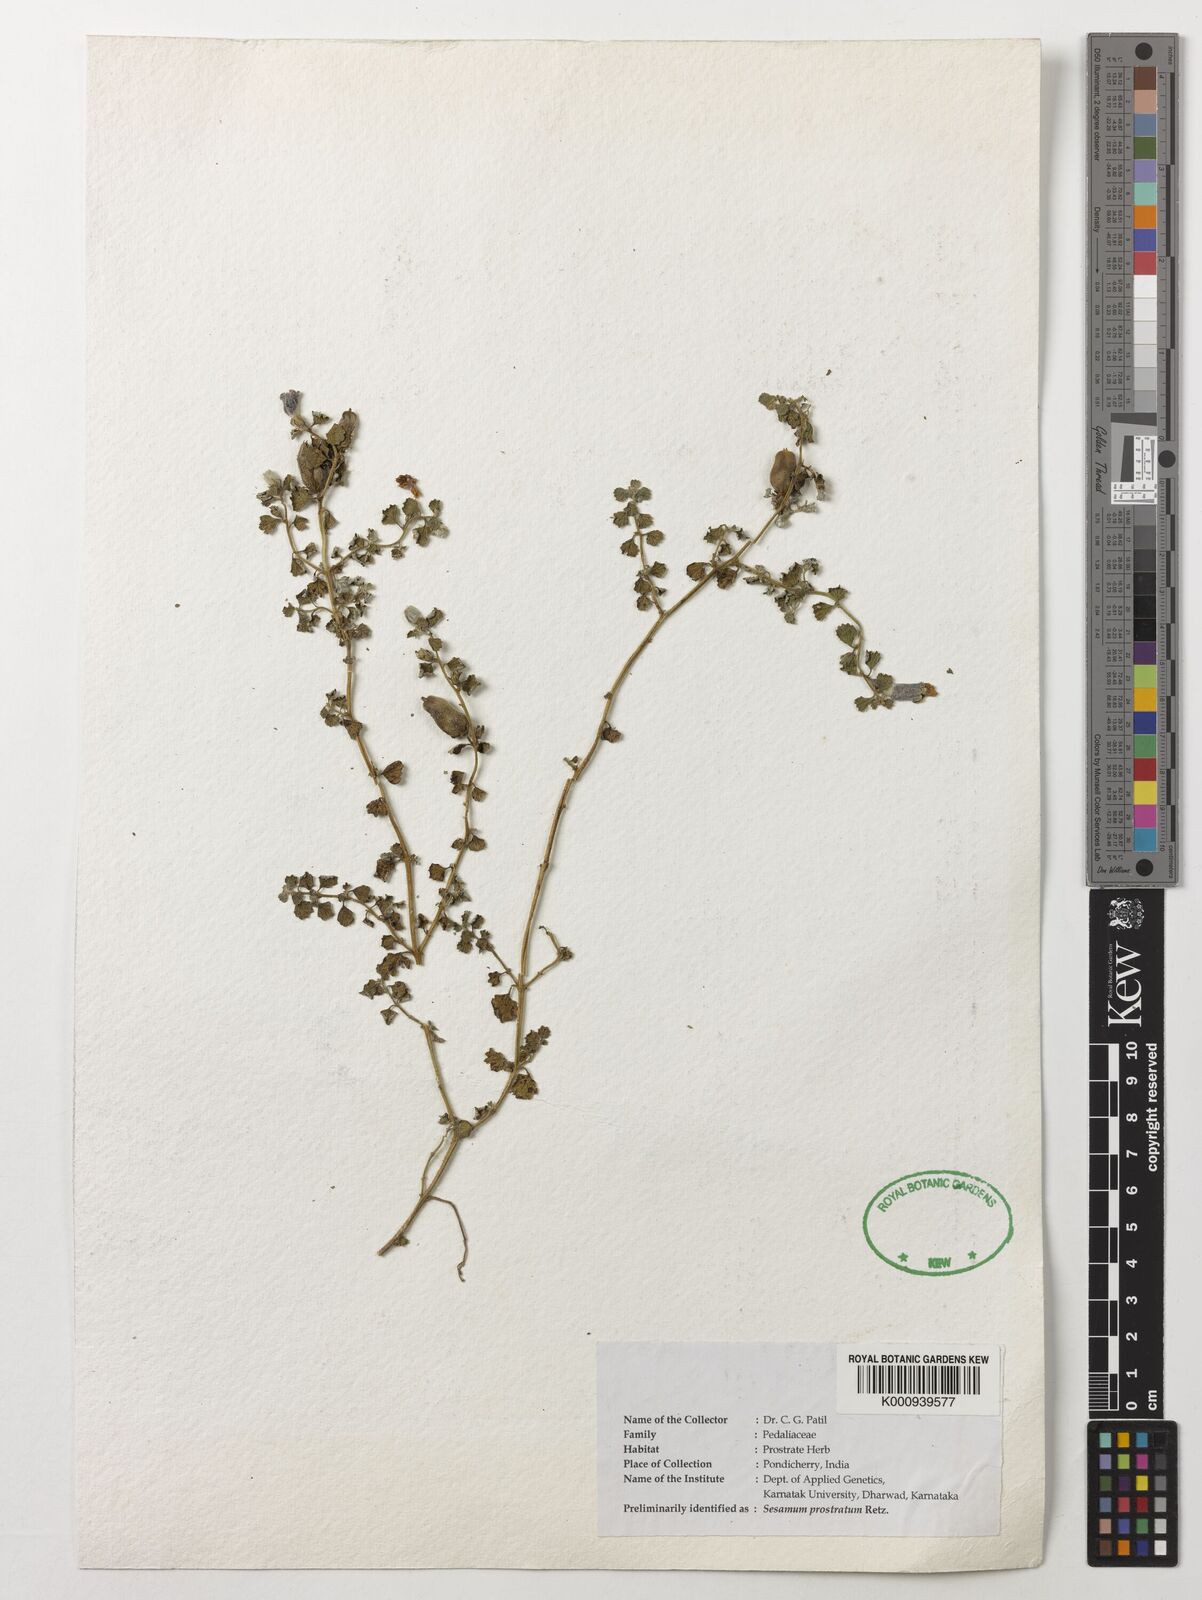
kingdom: Plantae
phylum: Tracheophyta
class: Magnoliopsida
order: Lamiales
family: Pedaliaceae
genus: Sesamum
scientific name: Sesamum prostratum
